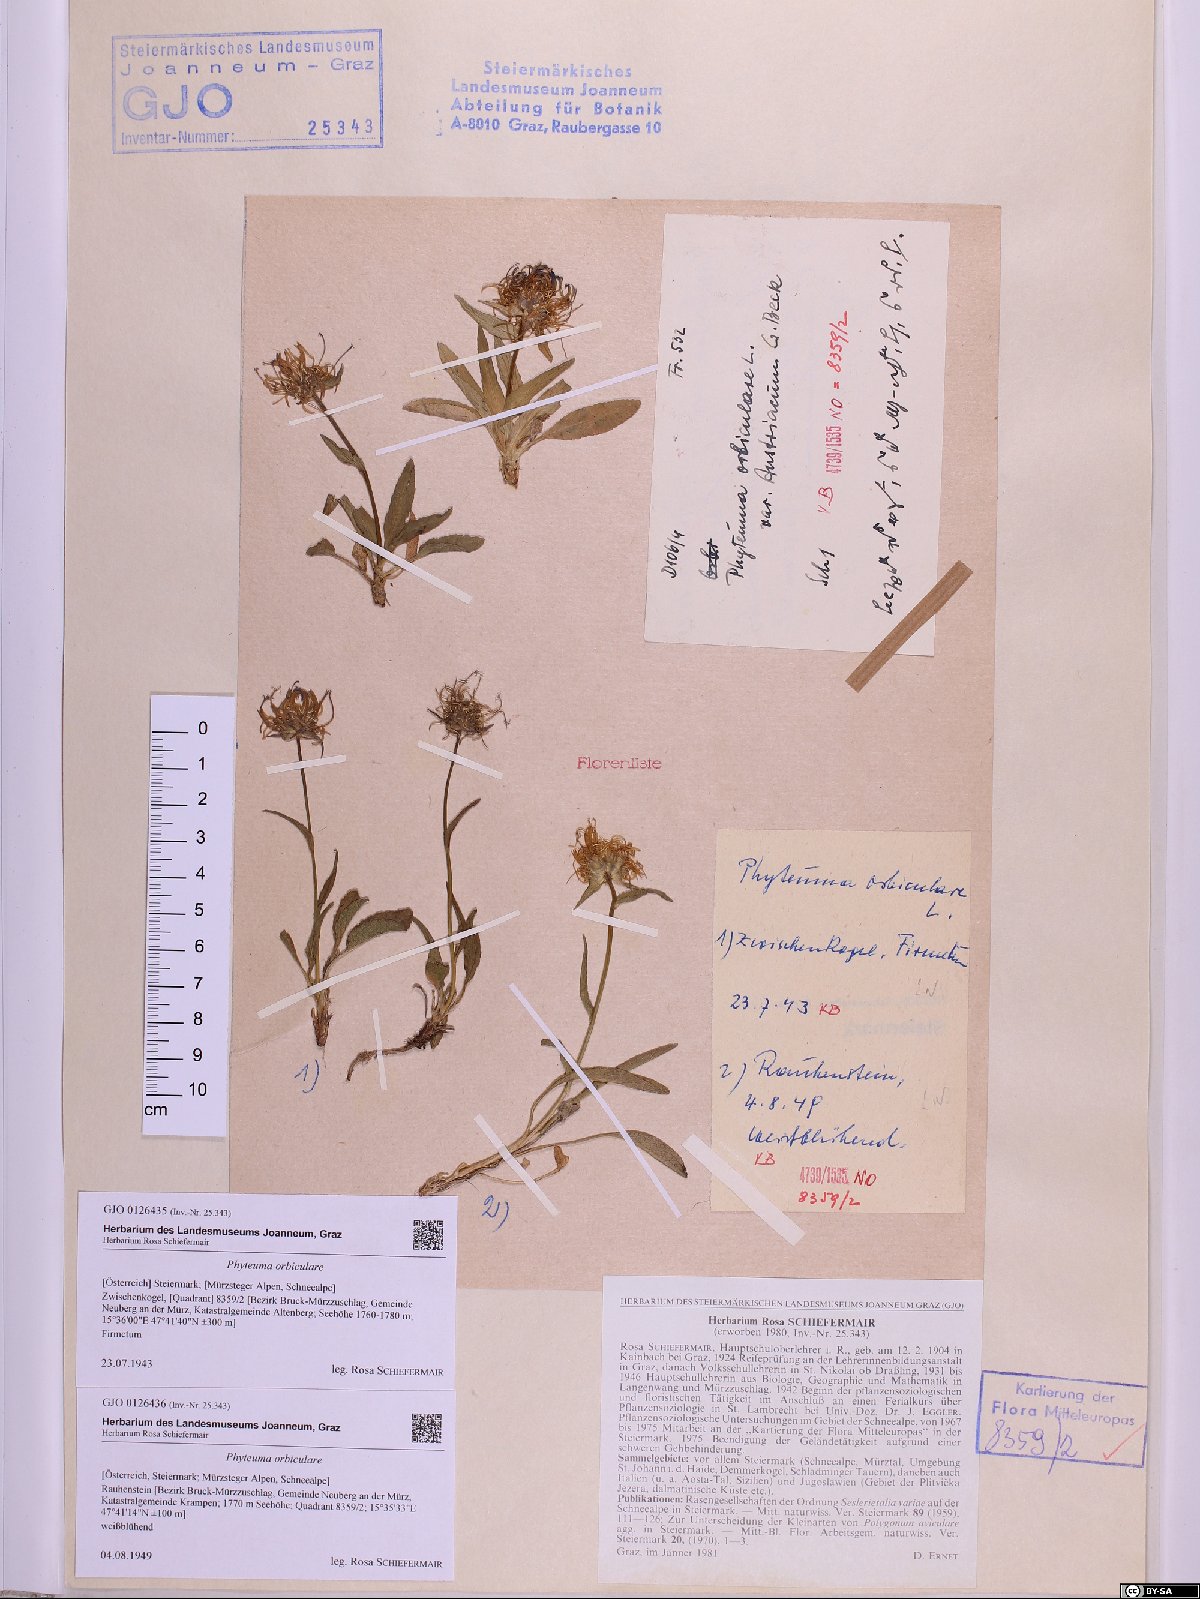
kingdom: Plantae
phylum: Tracheophyta
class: Magnoliopsida
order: Asterales
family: Campanulaceae
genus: Phyteuma
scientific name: Phyteuma orbiculare
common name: Round-headed rampion
